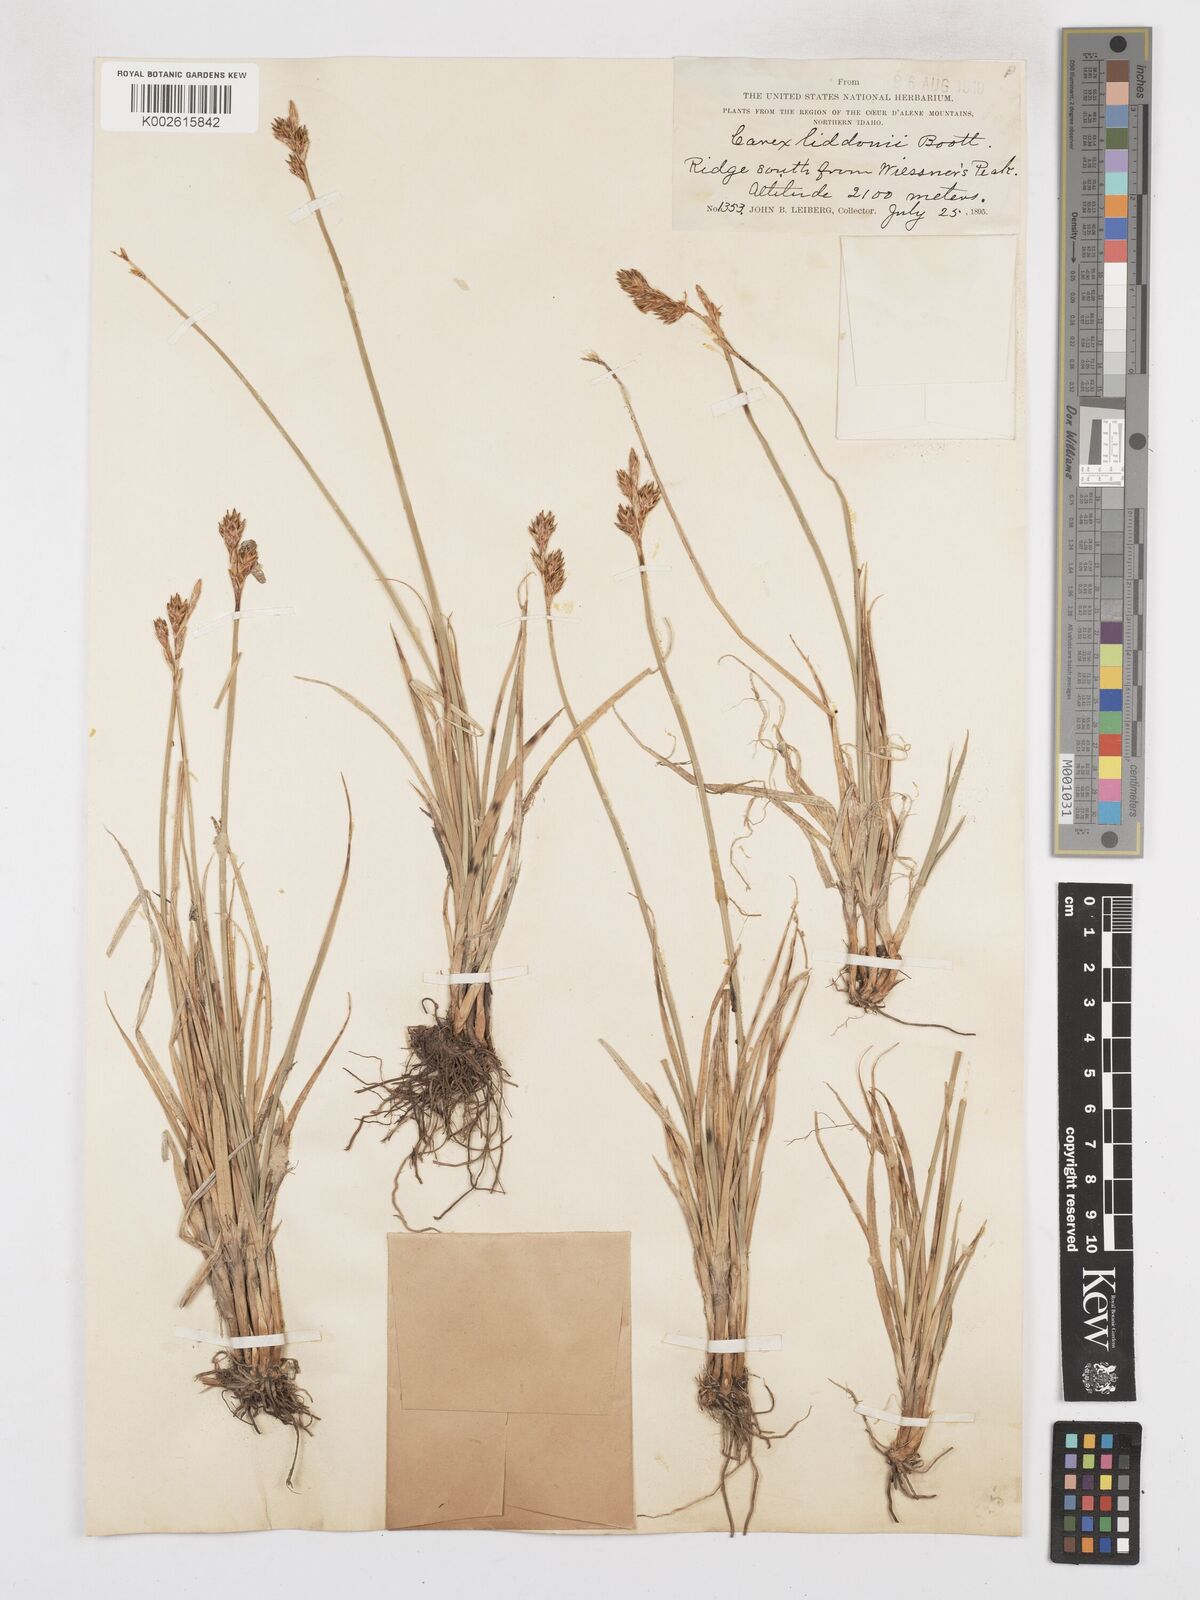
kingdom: Plantae
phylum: Tracheophyta
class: Liliopsida
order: Poales
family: Cyperaceae
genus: Carex
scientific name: Carex petasata
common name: Liddon's sedge
